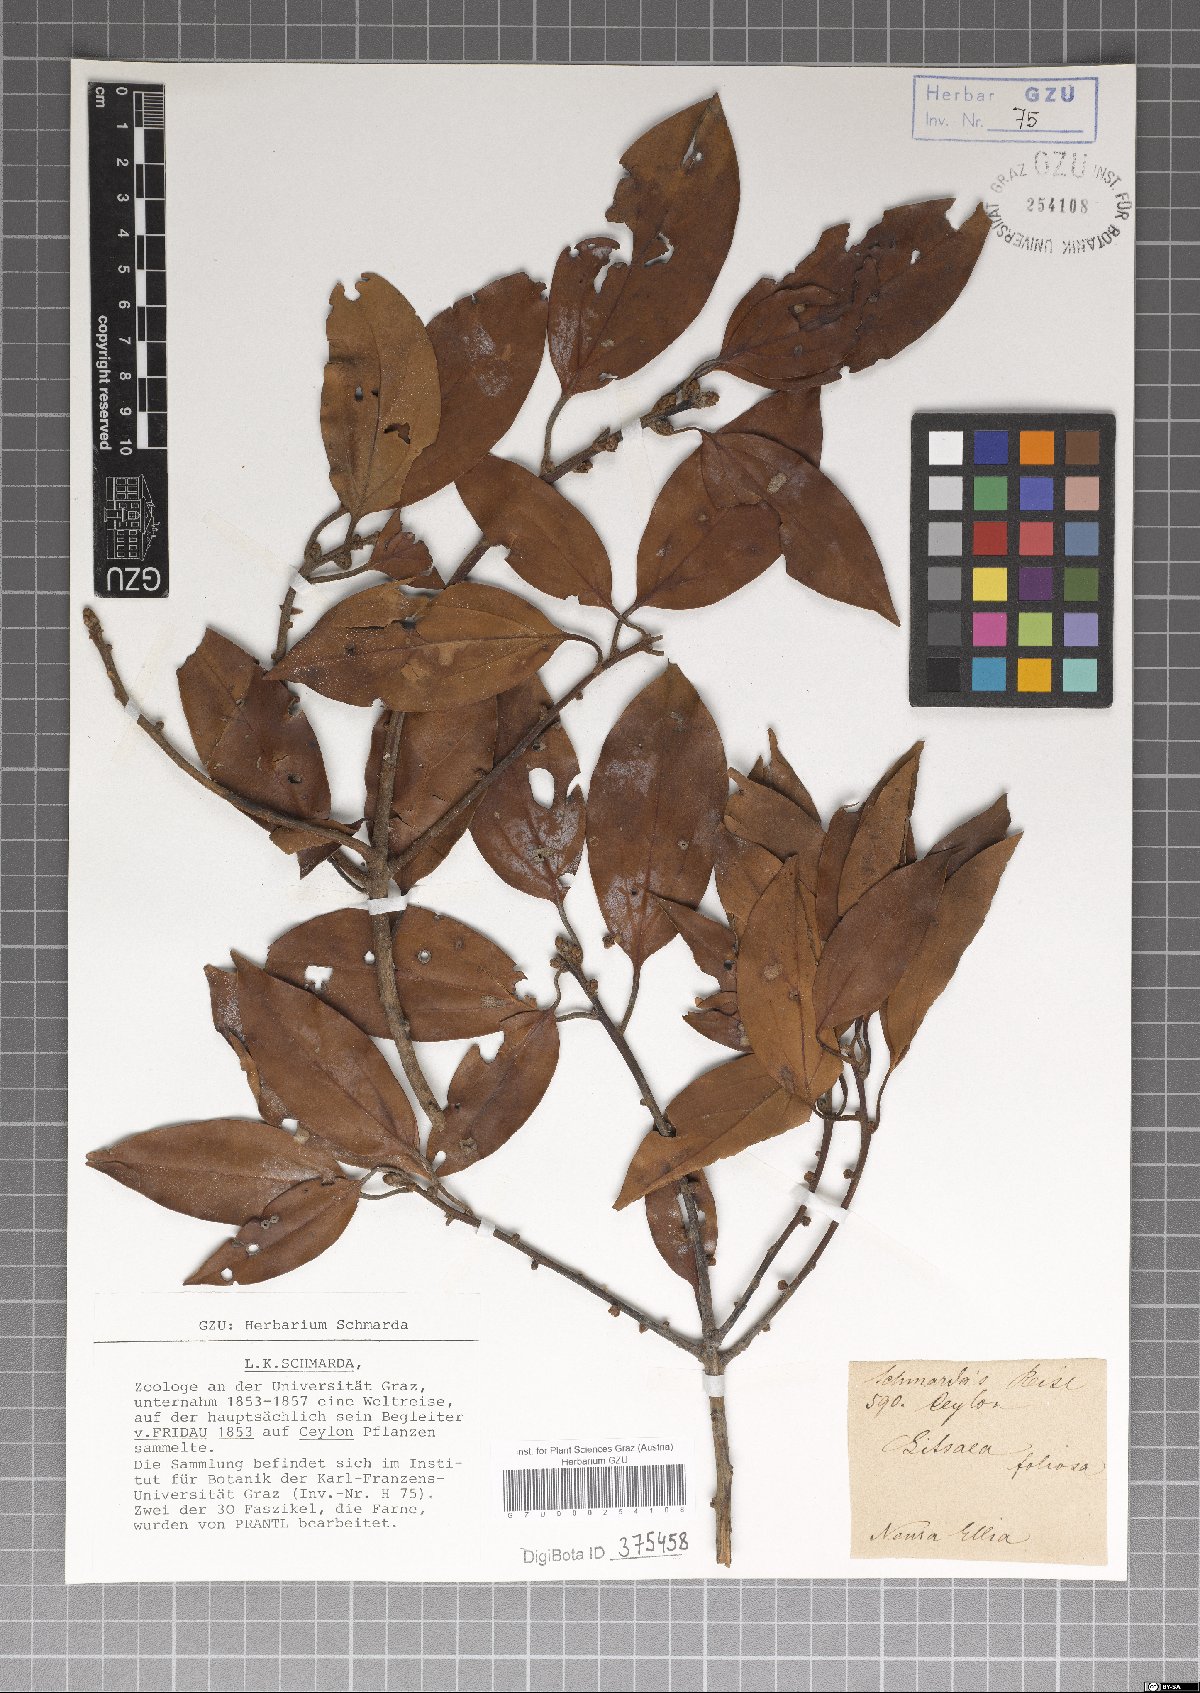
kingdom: Plantae
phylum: Tracheophyta
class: Magnoliopsida
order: Laurales
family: Lauraceae
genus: Neolitsea
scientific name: Neolitsea umbrosa
